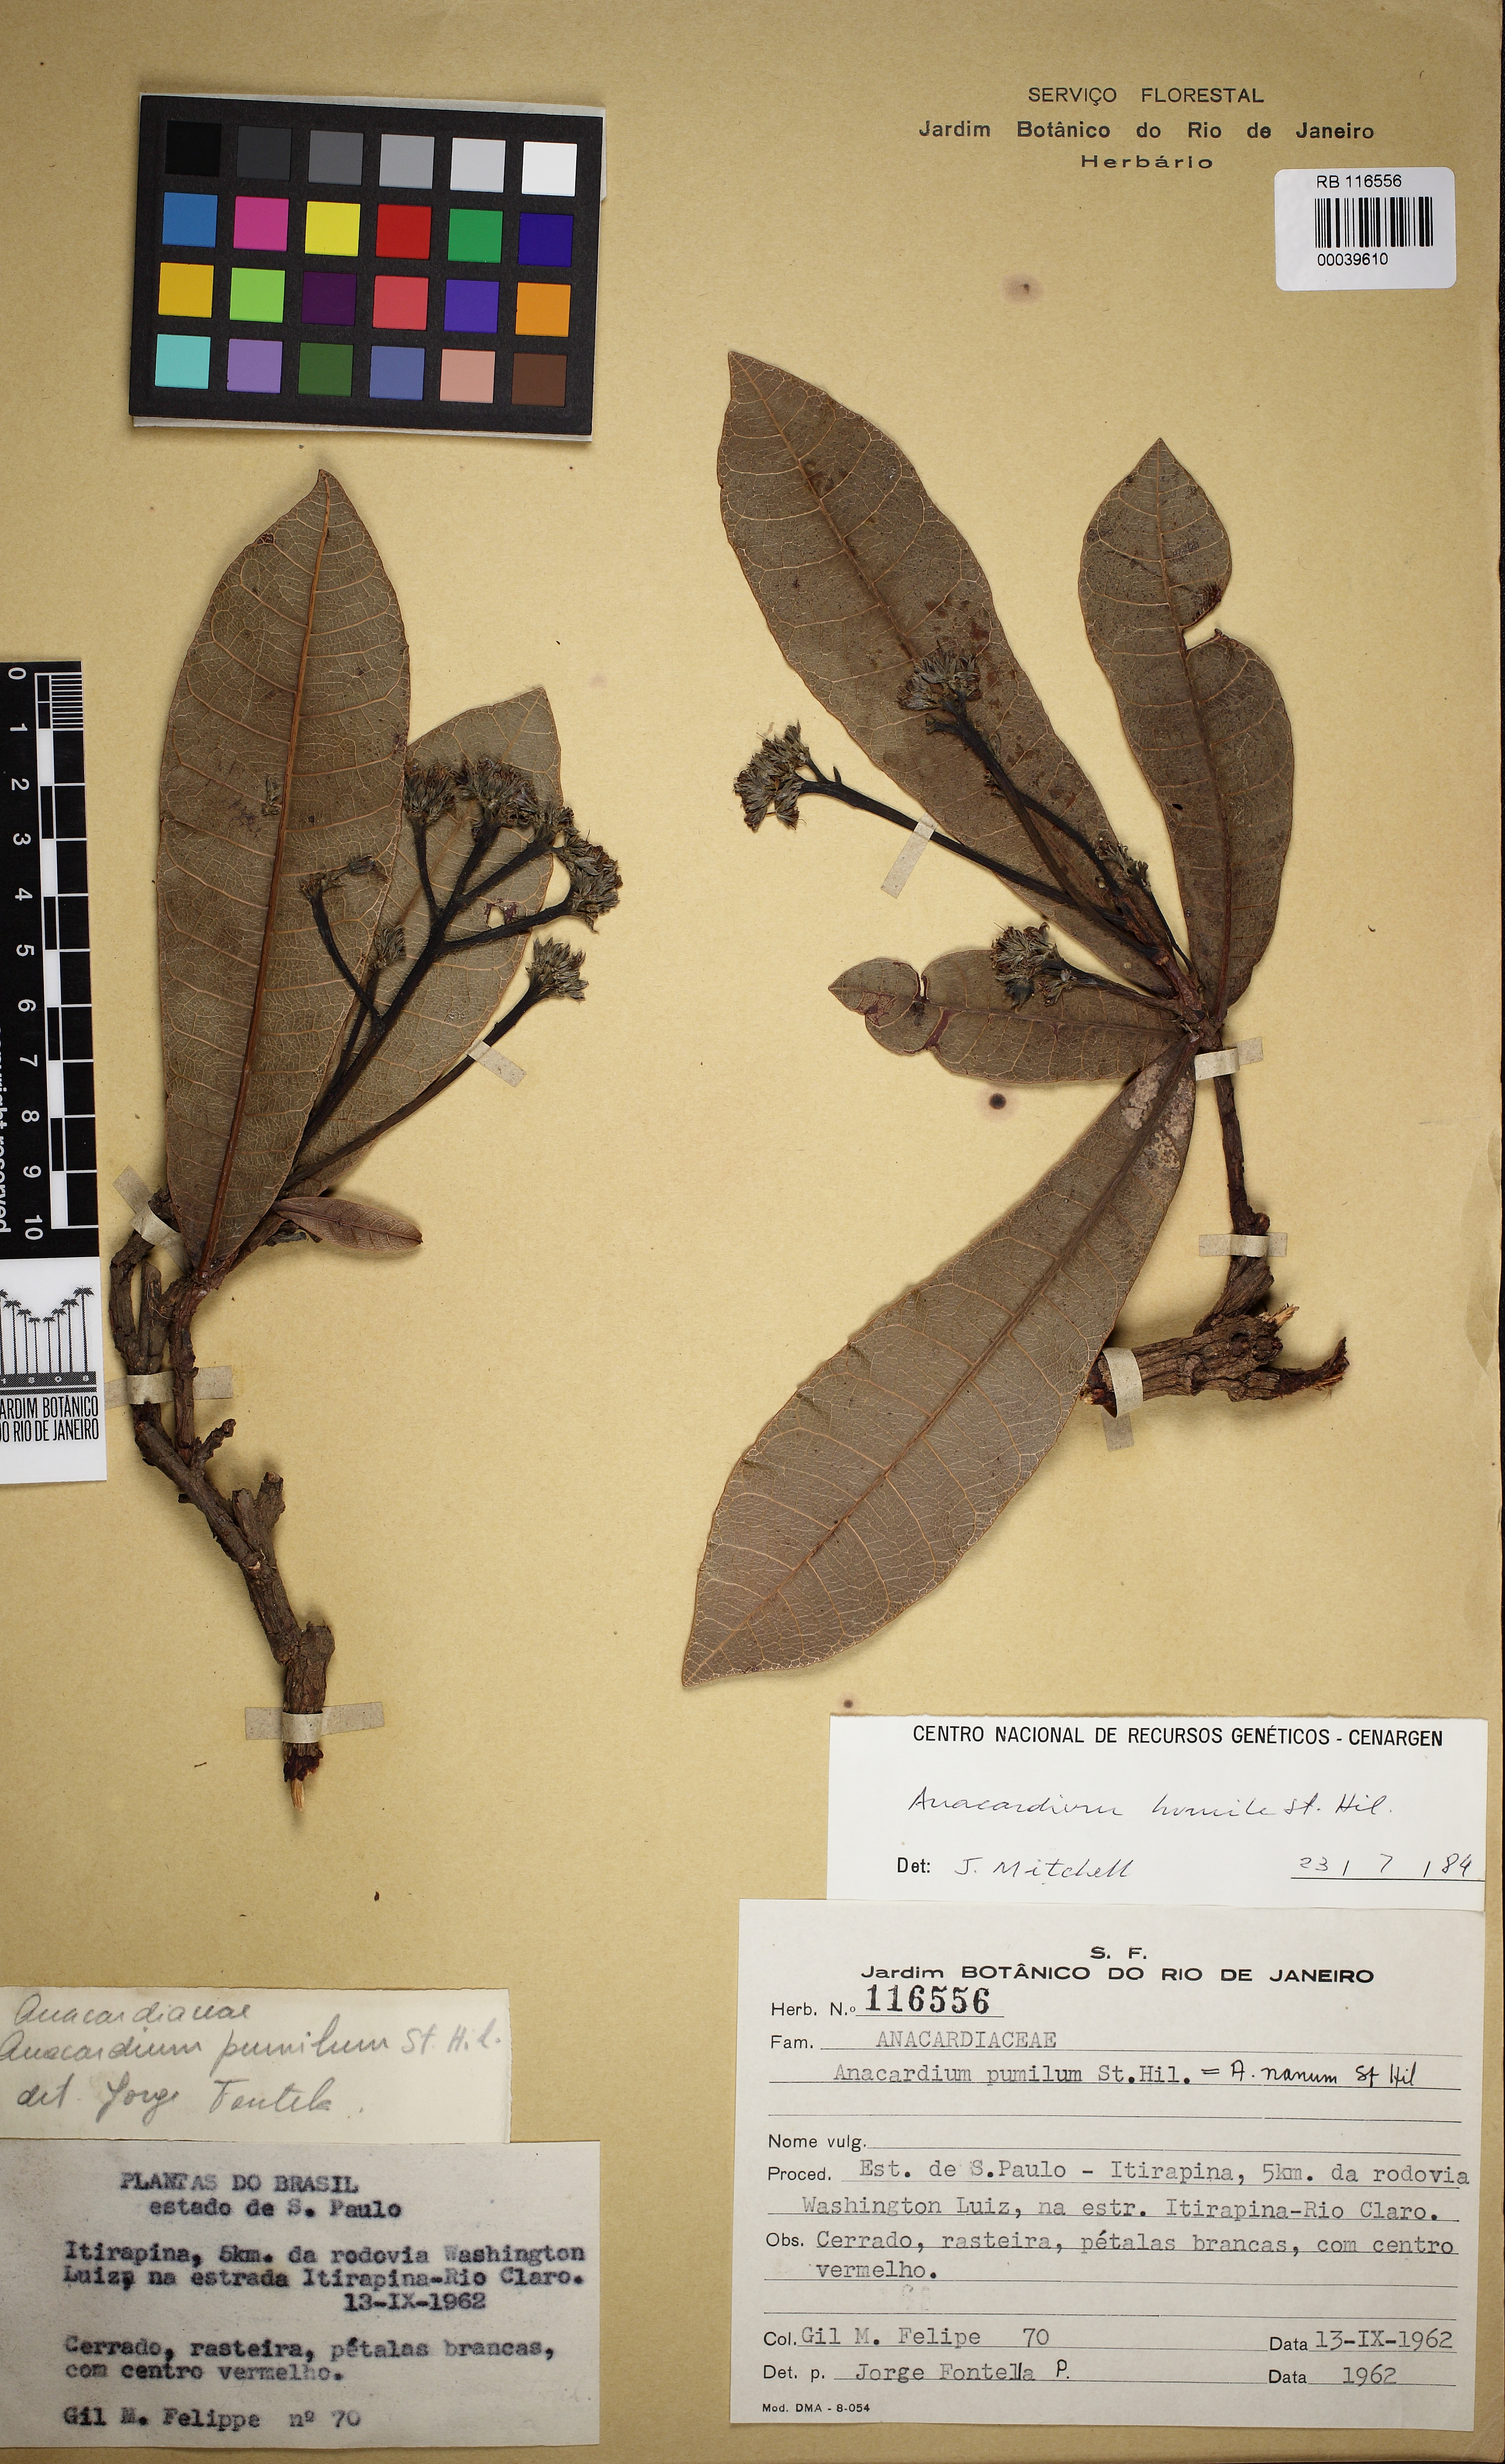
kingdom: Plantae
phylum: Tracheophyta
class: Magnoliopsida
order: Sapindales
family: Anacardiaceae
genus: Anacardium
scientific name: Anacardium humile
